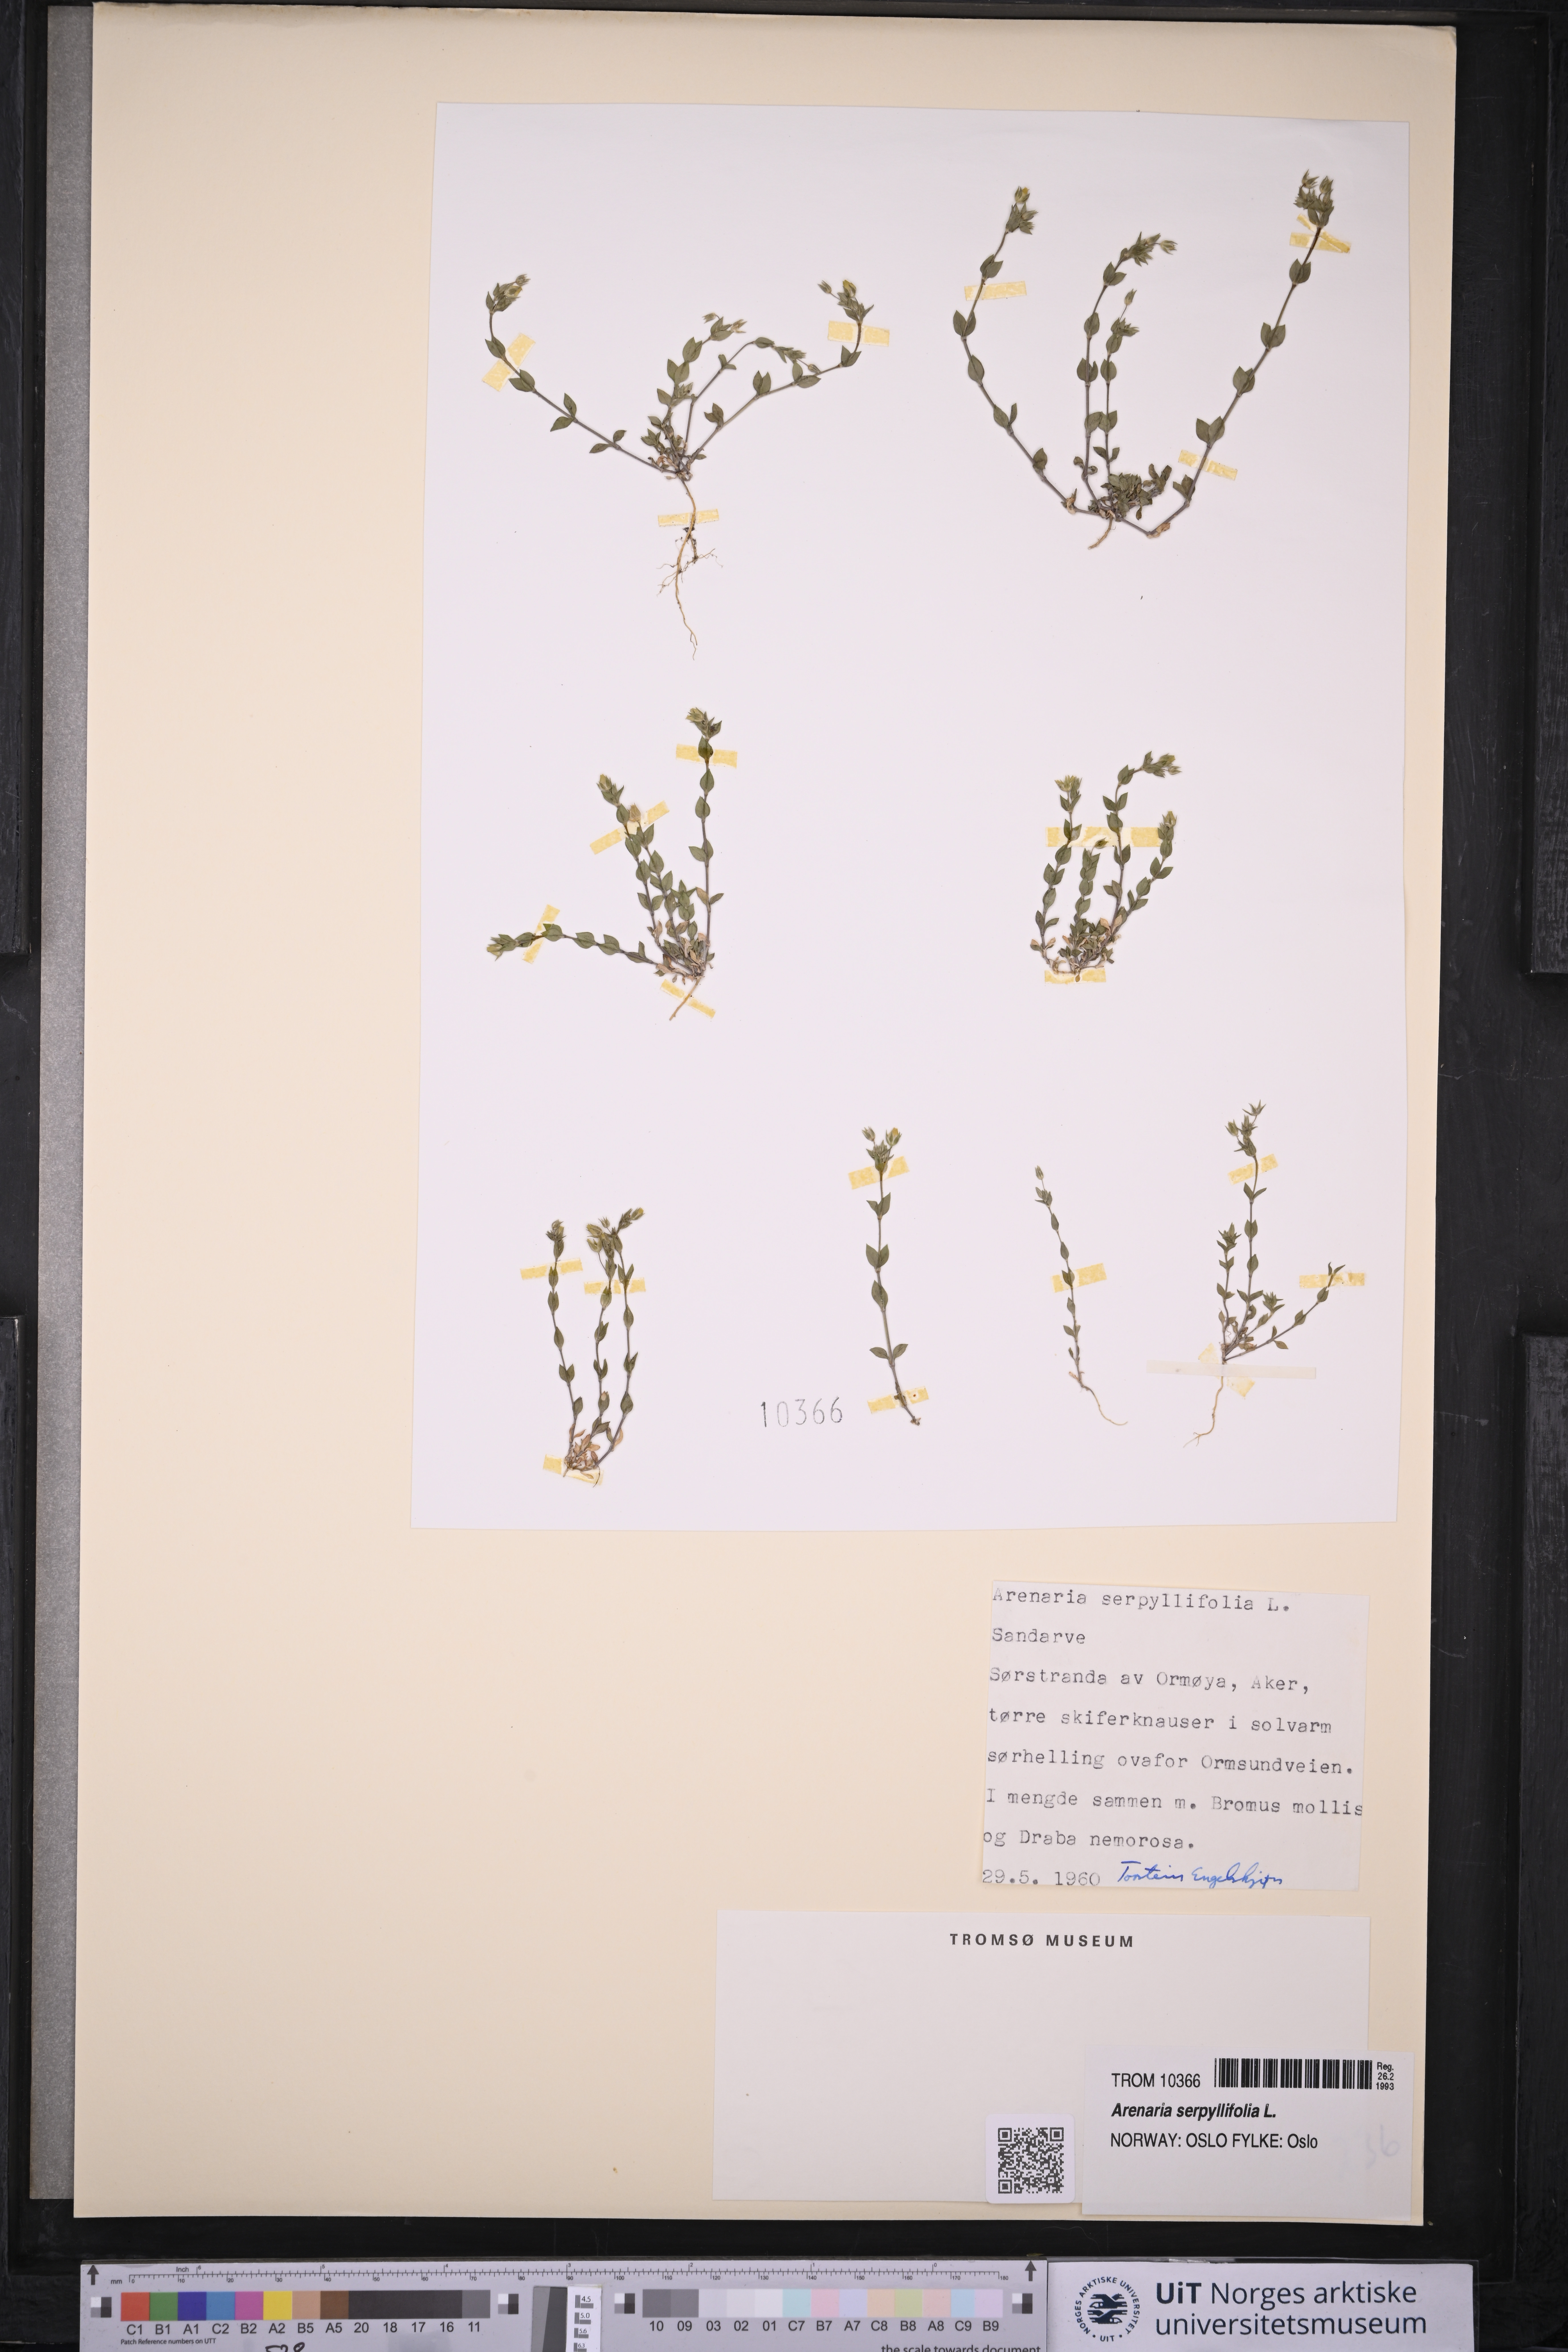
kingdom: Plantae
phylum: Tracheophyta
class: Magnoliopsida
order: Caryophyllales
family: Caryophyllaceae
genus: Arenaria
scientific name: Arenaria serpyllifolia
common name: Thyme-leaved sandwort
